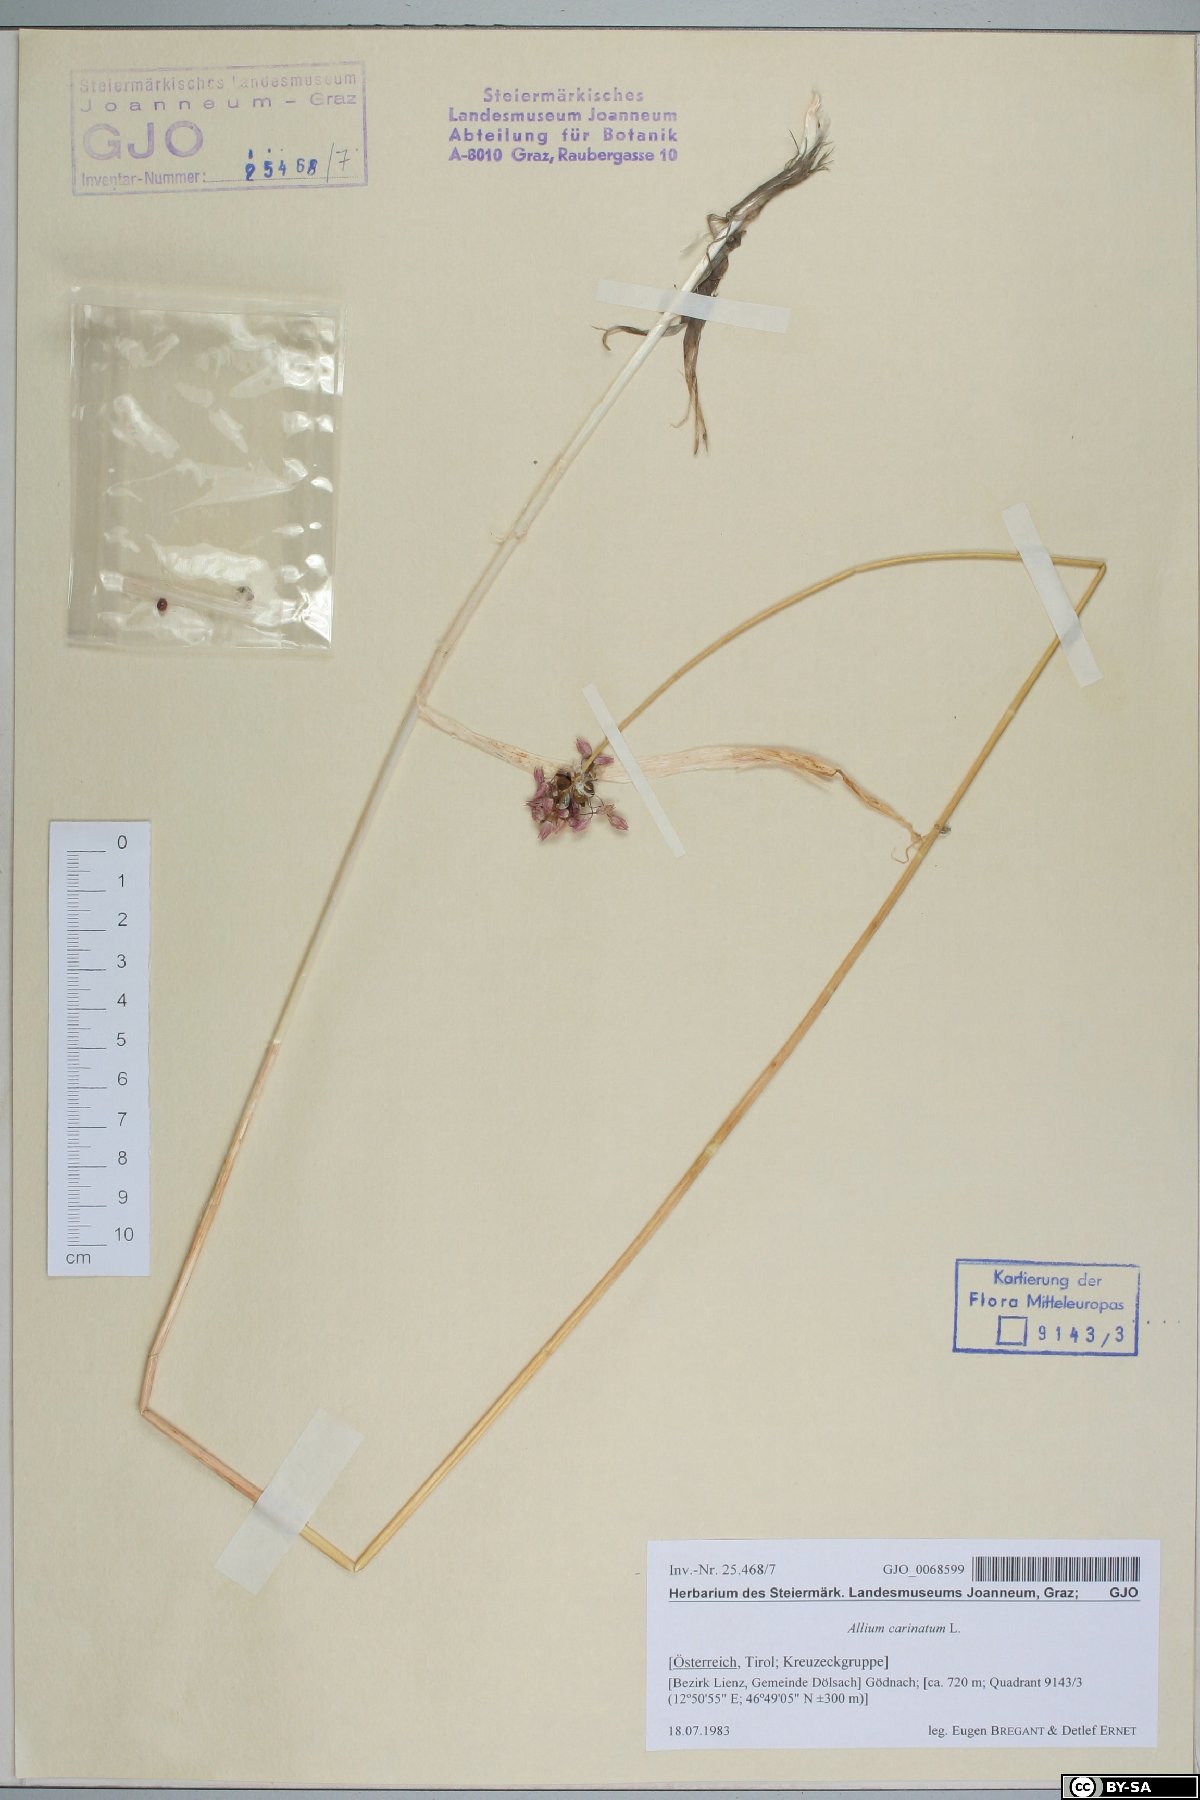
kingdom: Plantae
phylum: Tracheophyta
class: Liliopsida
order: Asparagales
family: Amaryllidaceae
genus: Allium
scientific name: Allium carinatum
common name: Keeled garlic
